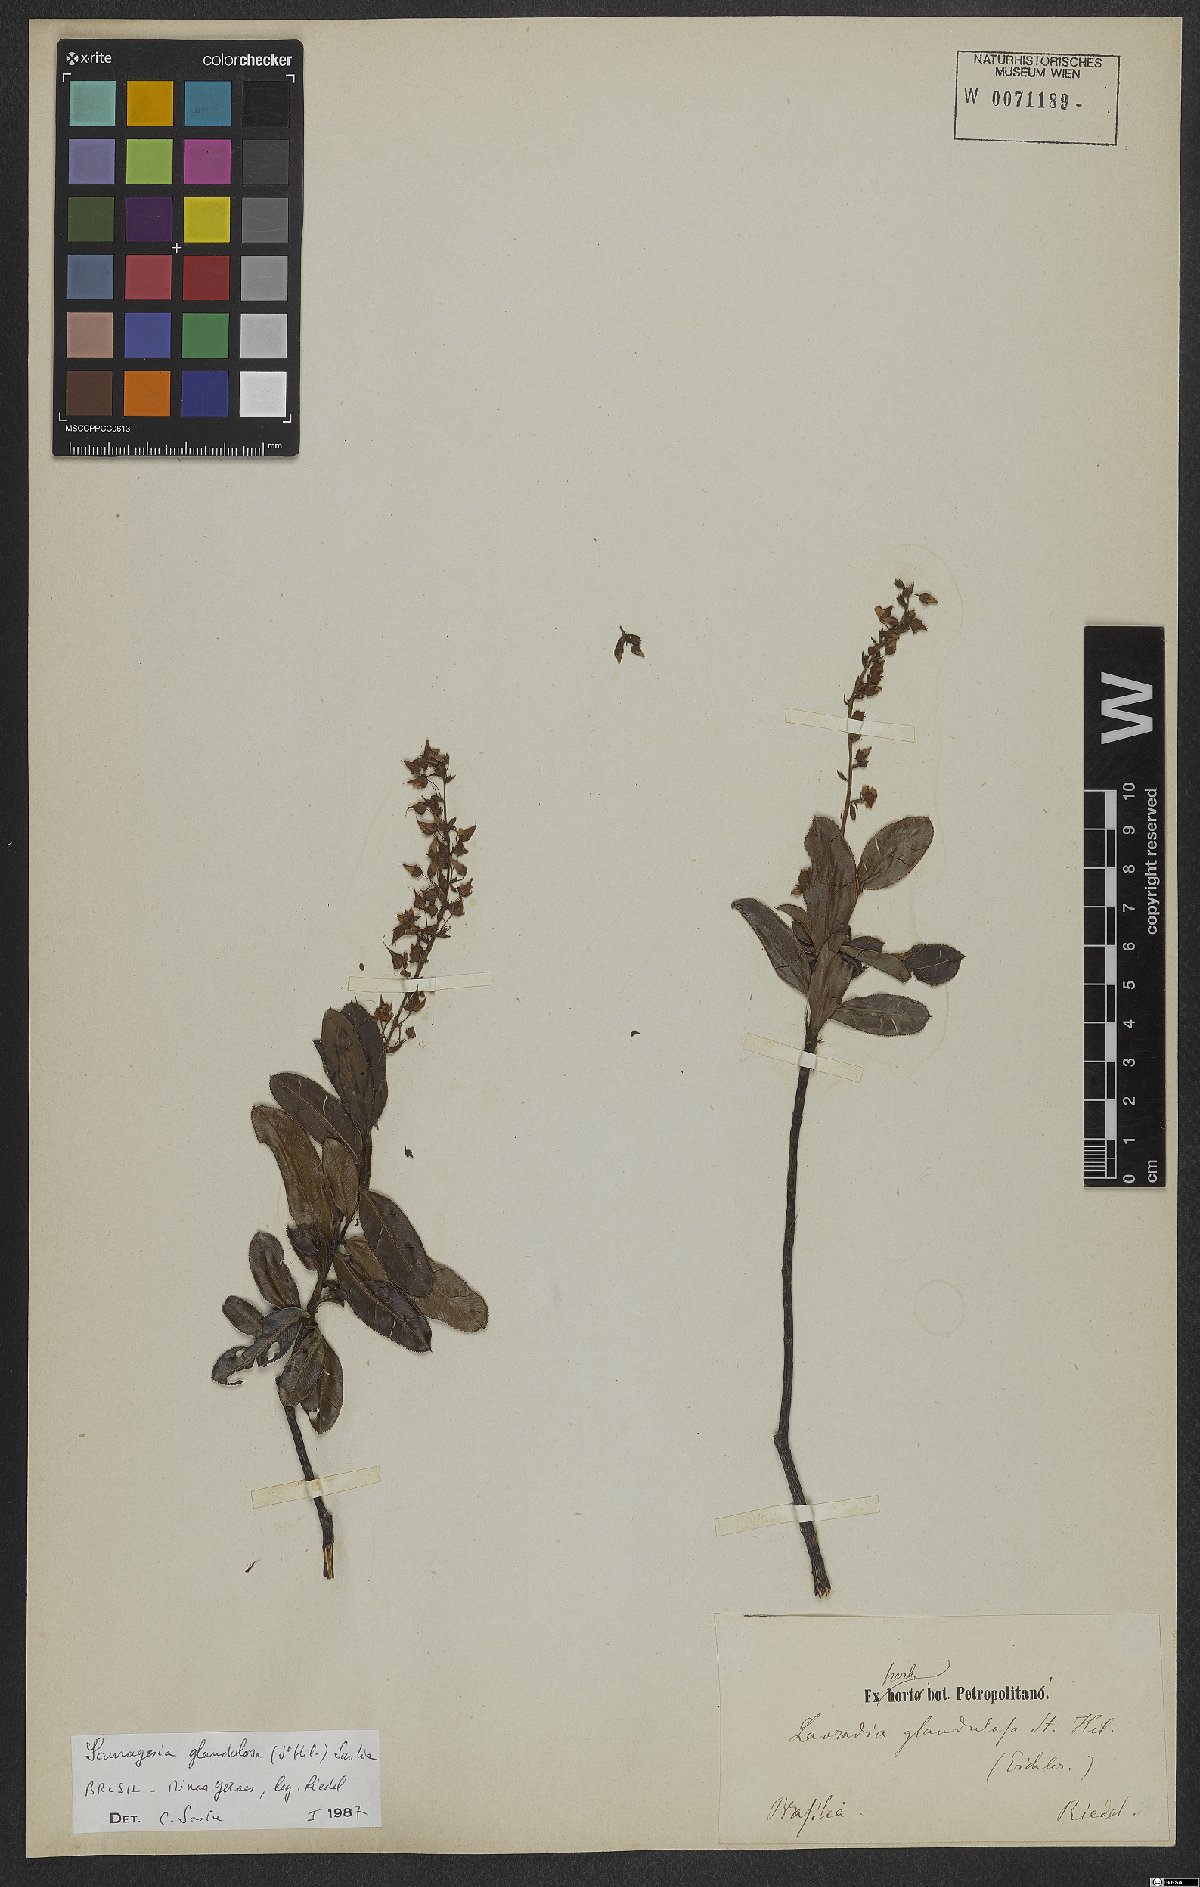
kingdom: Plantae
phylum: Tracheophyta
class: Magnoliopsida
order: Malpighiales
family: Ochnaceae
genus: Sauvagesia
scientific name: Sauvagesia glandulosa
